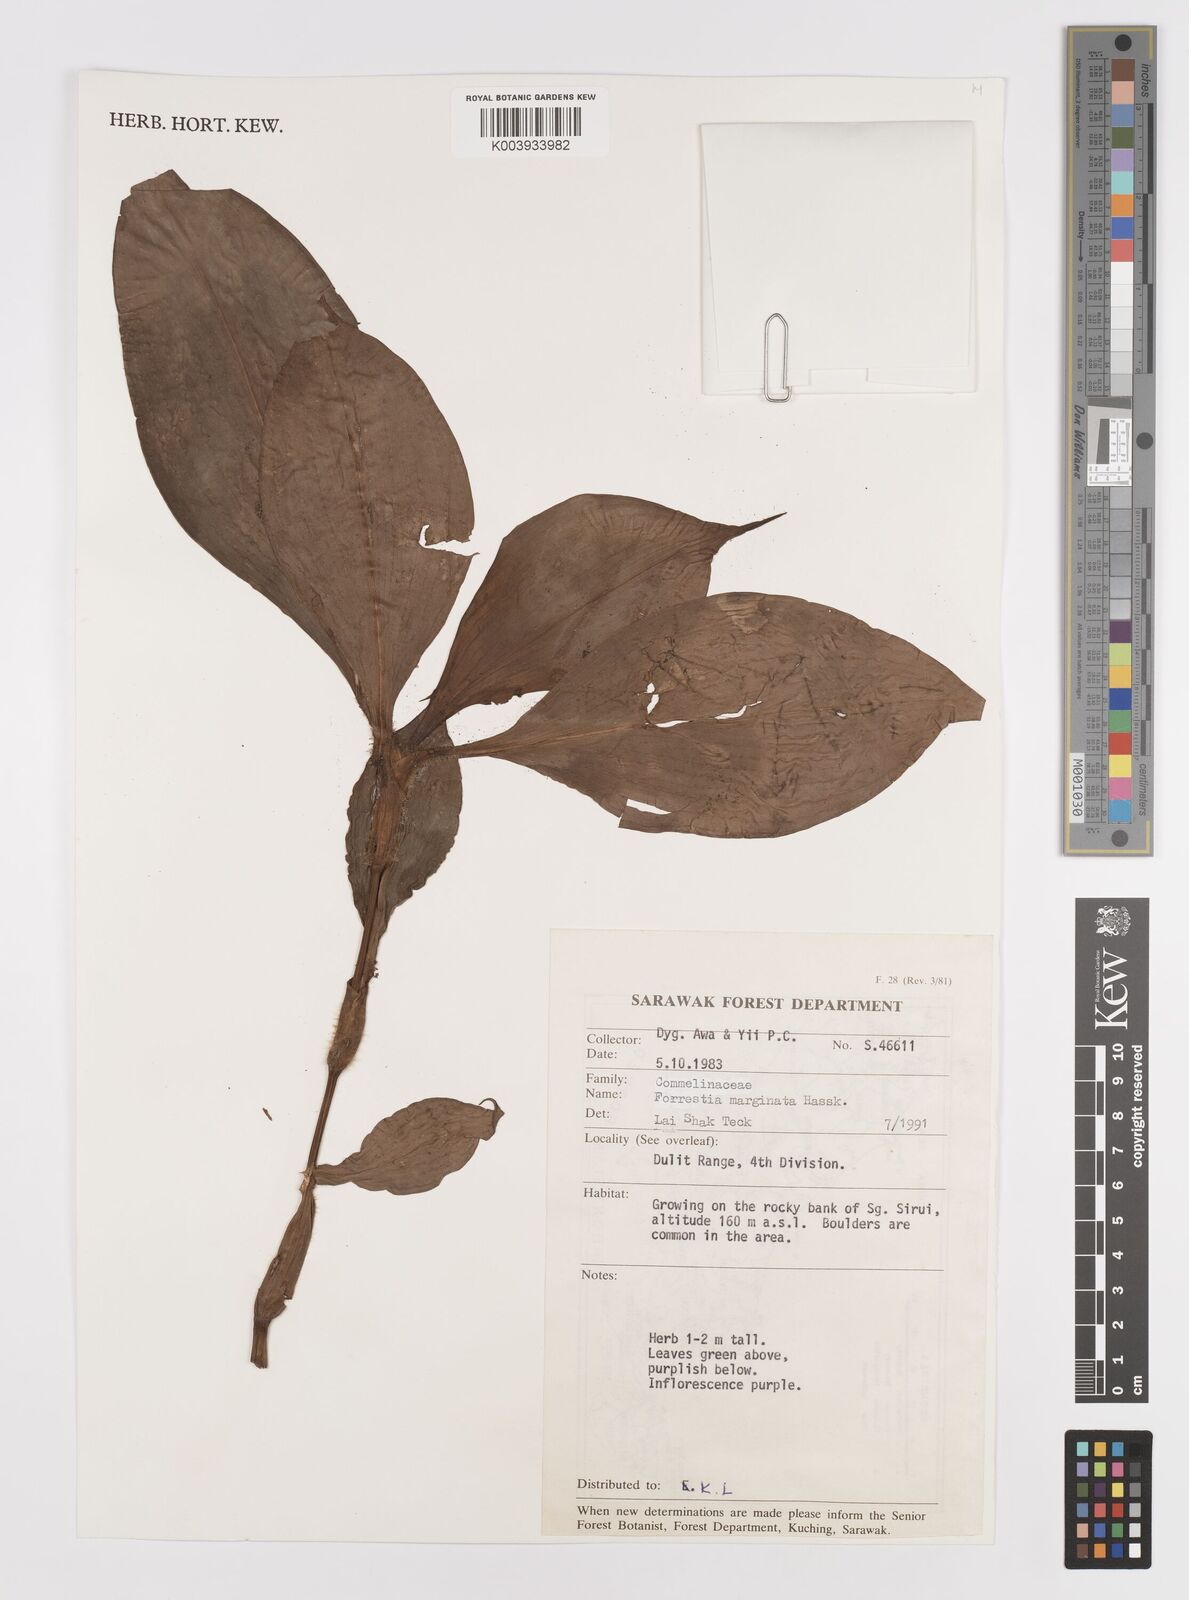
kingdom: Plantae
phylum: Tracheophyta
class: Liliopsida
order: Commelinales
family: Commelinaceae
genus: Amischotolype
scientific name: Amischotolype marginata
